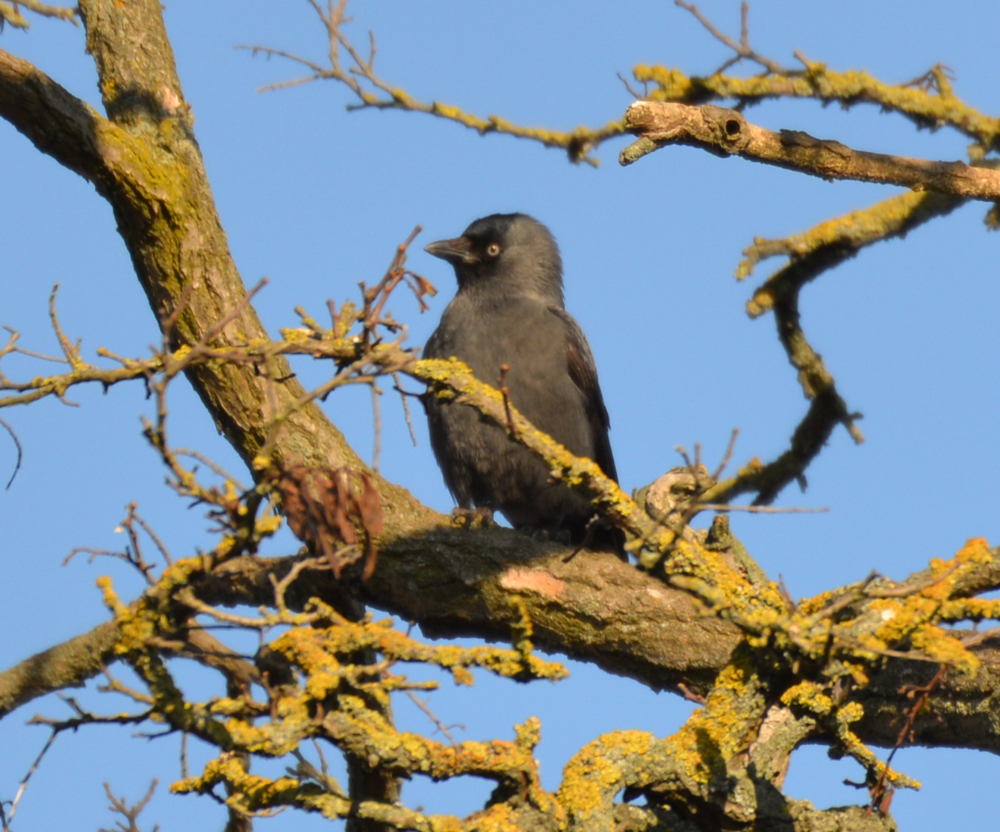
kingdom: Animalia
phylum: Chordata
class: Aves
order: Passeriformes
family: Corvidae
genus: Coloeus
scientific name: Coloeus monedula
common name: Western jackdaw
